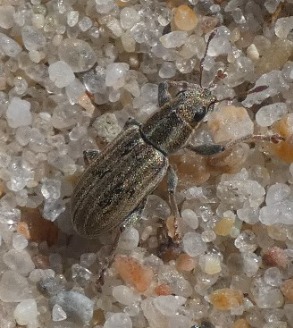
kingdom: Animalia
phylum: Arthropoda
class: Insecta
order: Coleoptera
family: Curculionidae
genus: Sitona
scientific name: Sitona lineatus
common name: Stribet bladrandbille
